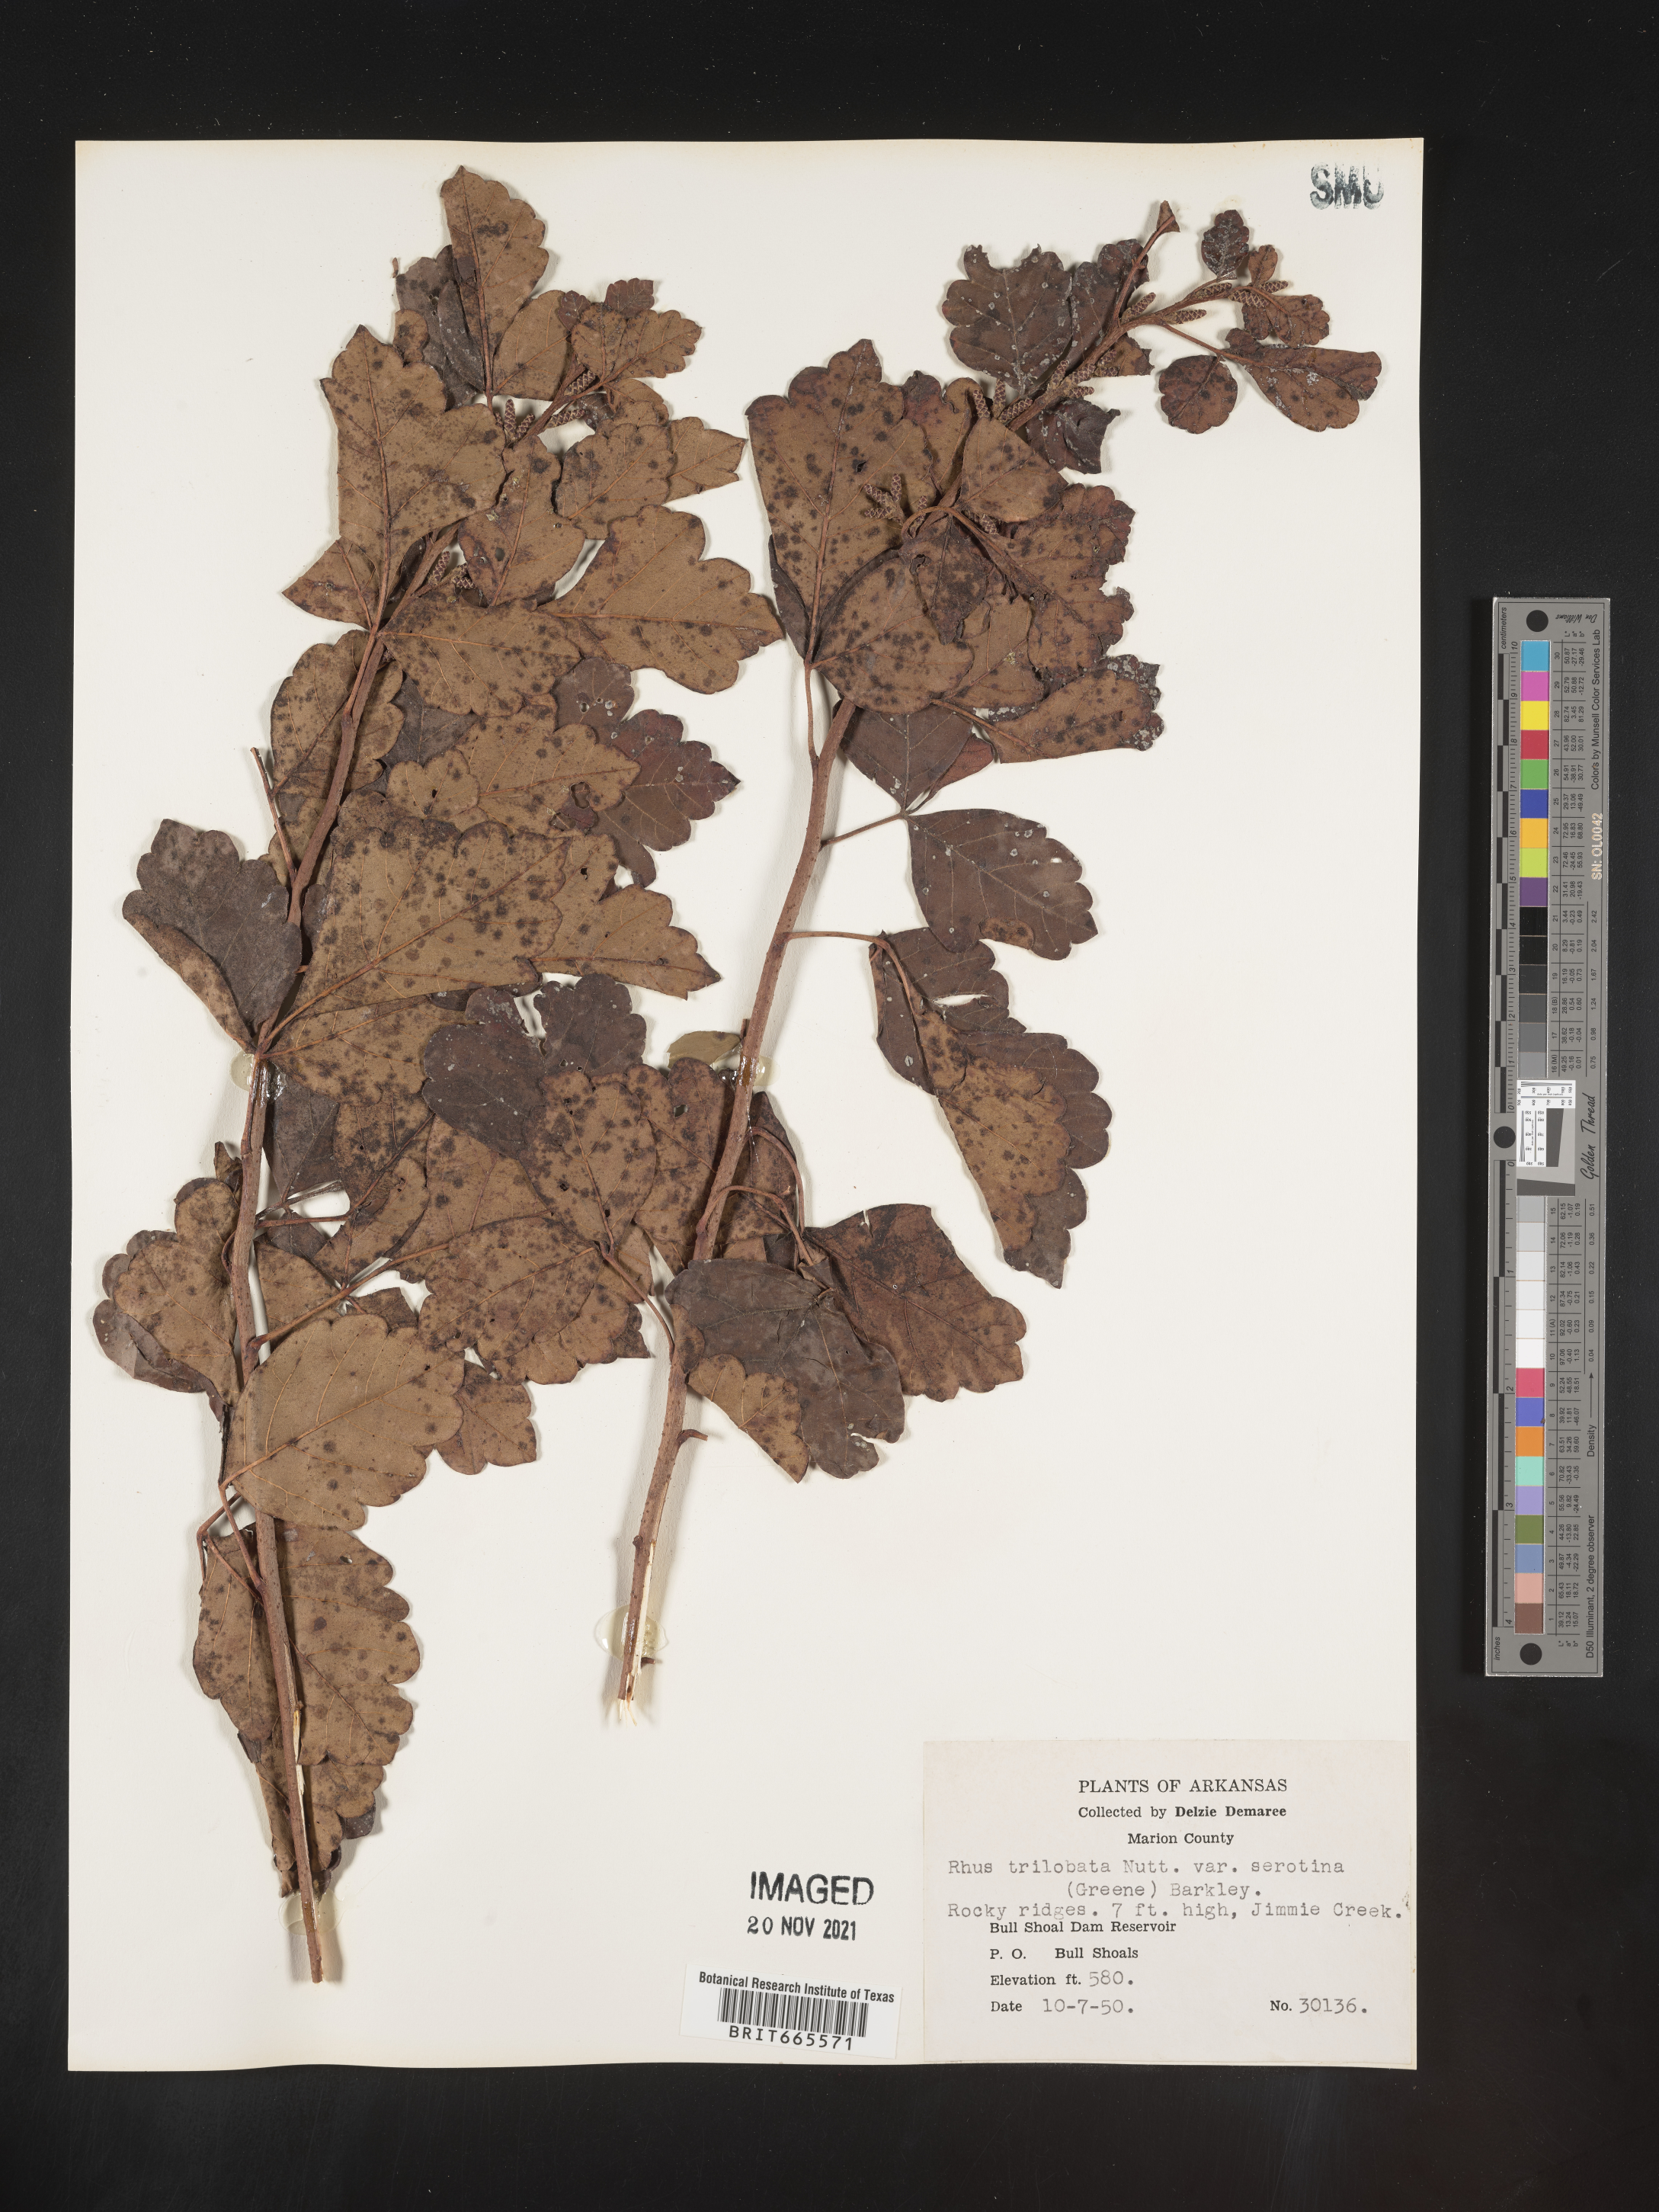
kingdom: Plantae
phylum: Tracheophyta
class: Magnoliopsida
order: Sapindales
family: Anacardiaceae
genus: Rhus
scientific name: Rhus aromatica
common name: Aromatic sumac
